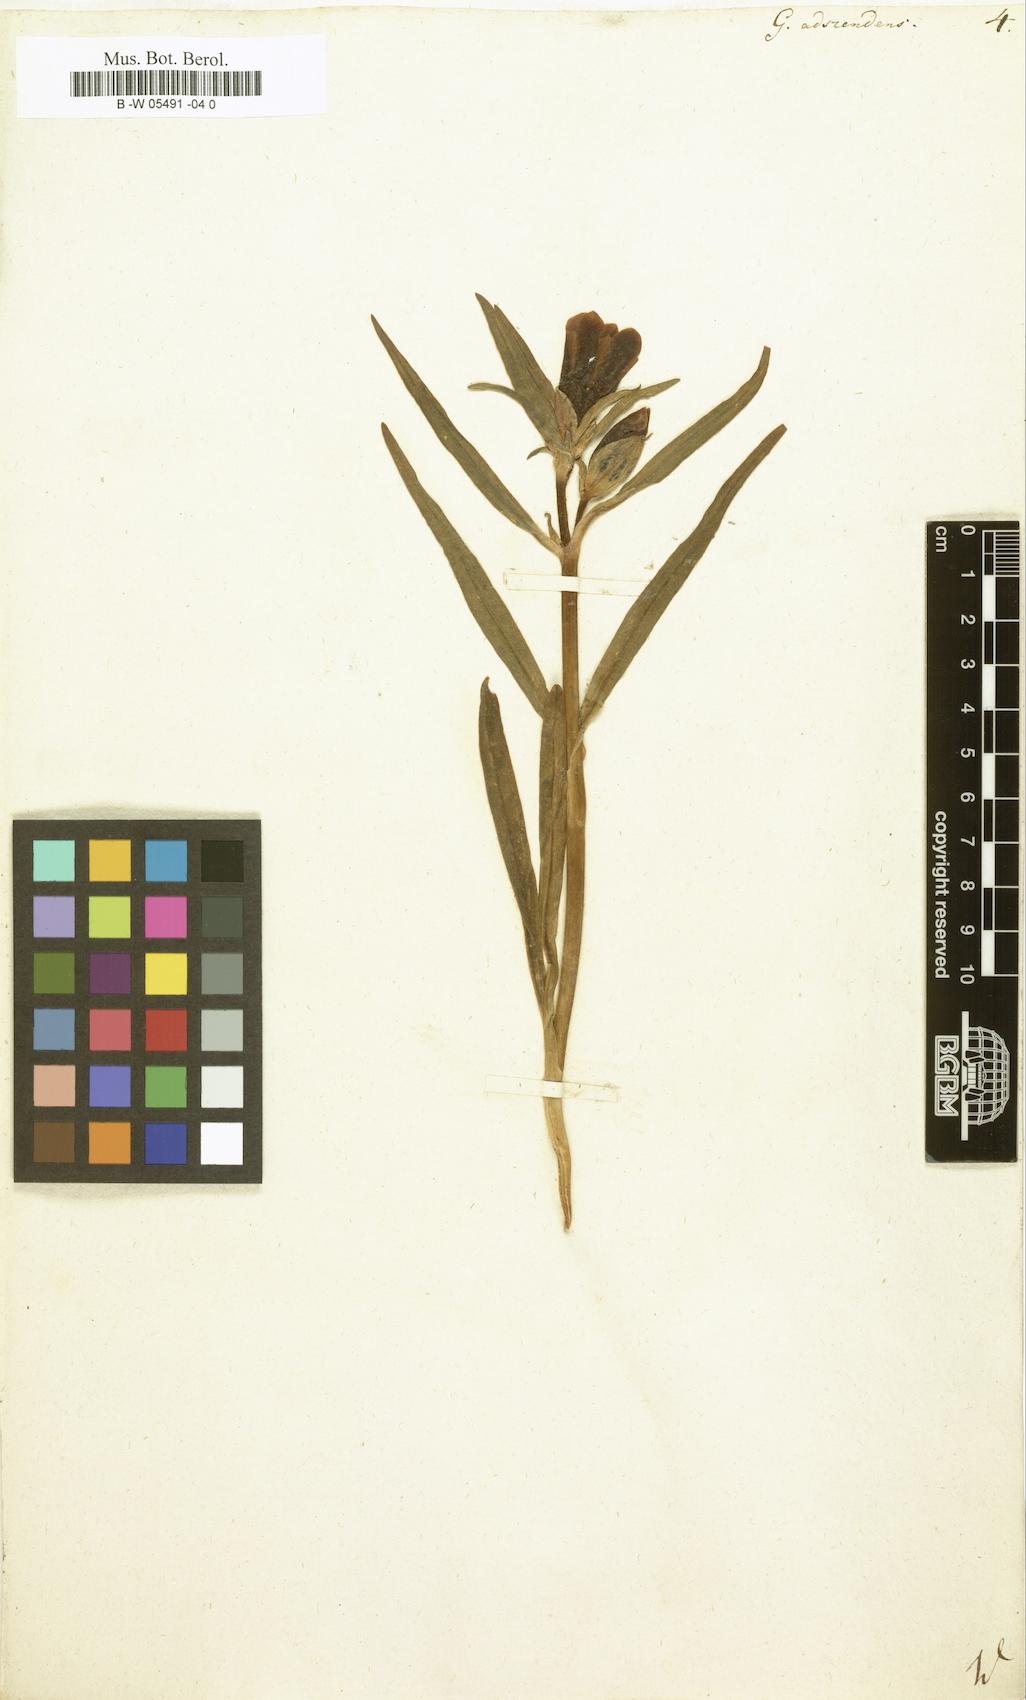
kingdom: Plantae
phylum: Tracheophyta
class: Magnoliopsida
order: Gentianales
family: Gentianaceae
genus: Gentiana
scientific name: Gentiana decumbens
